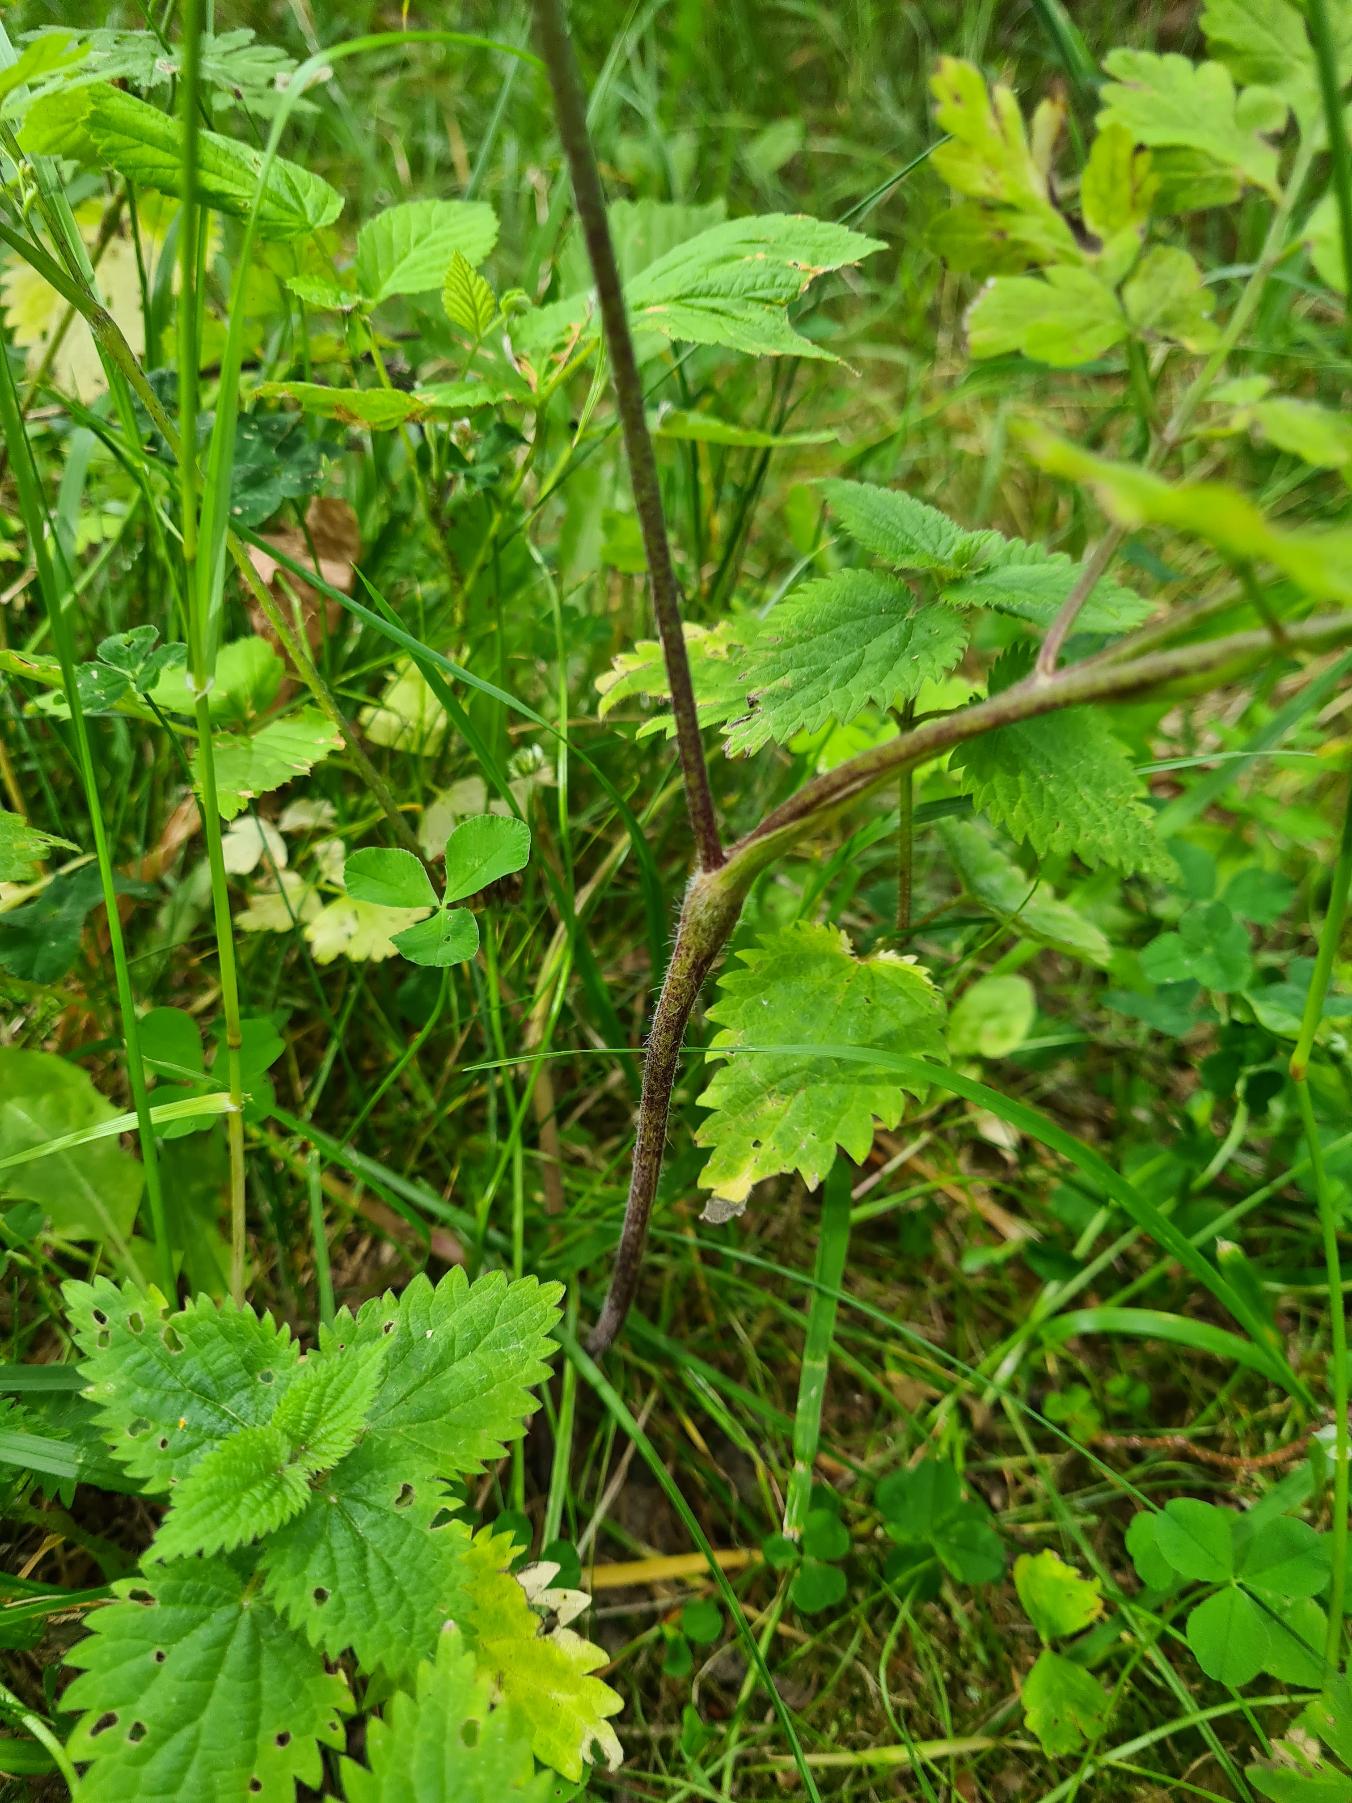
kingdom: Plantae
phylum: Tracheophyta
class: Magnoliopsida
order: Apiales
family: Apiaceae
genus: Chaerophyllum
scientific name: Chaerophyllum temulum
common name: Almindelig hulsvøb
